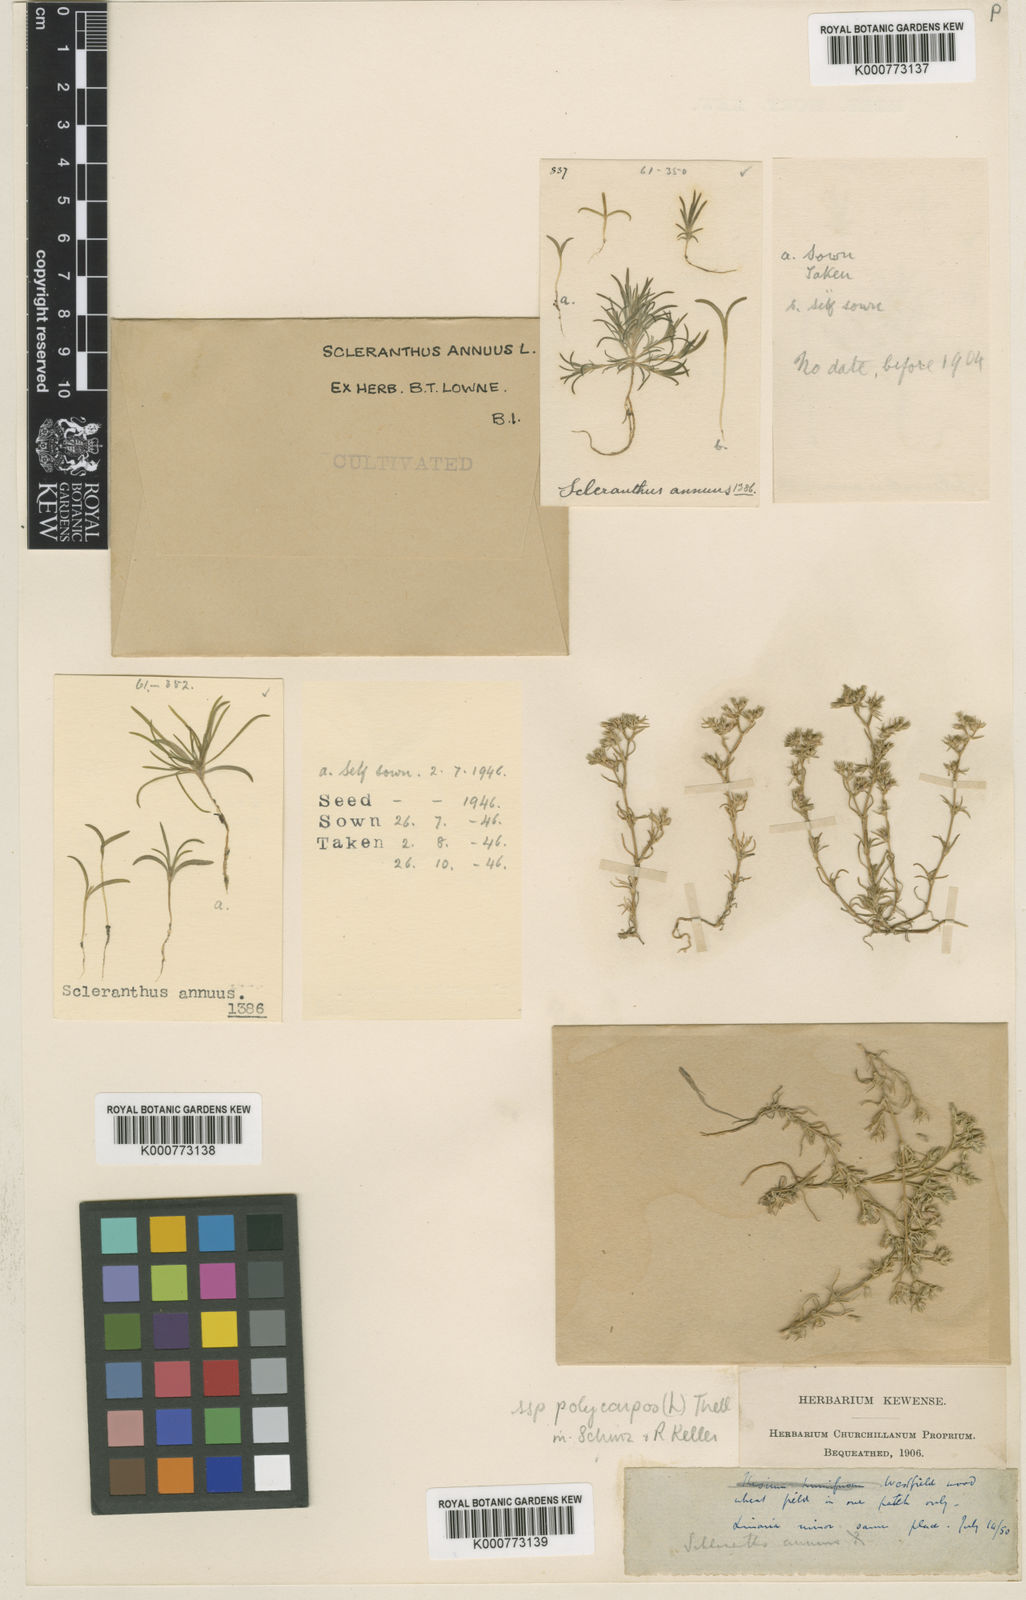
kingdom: Plantae
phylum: Tracheophyta
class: Magnoliopsida
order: Caryophyllales
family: Caryophyllaceae
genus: Scleranthus
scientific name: Scleranthus annuus
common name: Annual knawel
